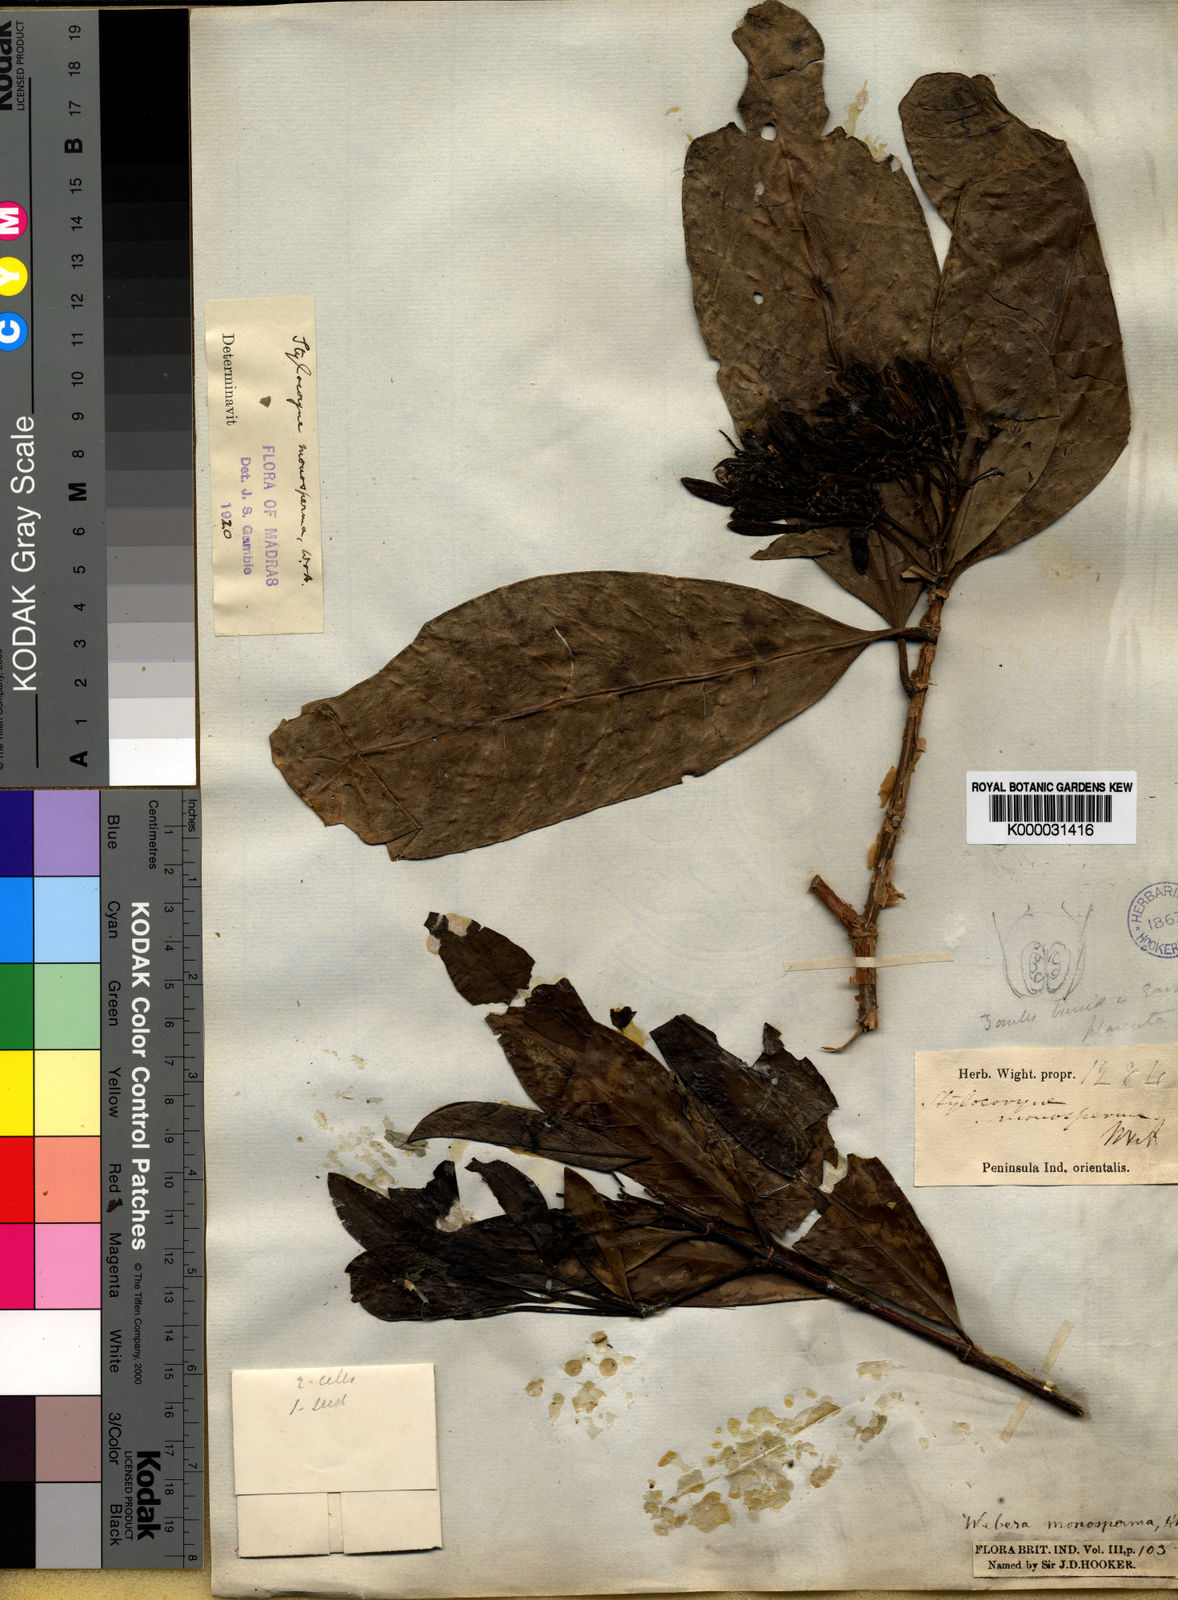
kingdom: Plantae
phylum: Tracheophyta
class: Magnoliopsida
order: Gentianales
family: Rubiaceae
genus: Tarenna
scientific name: Tarenna monosperma
